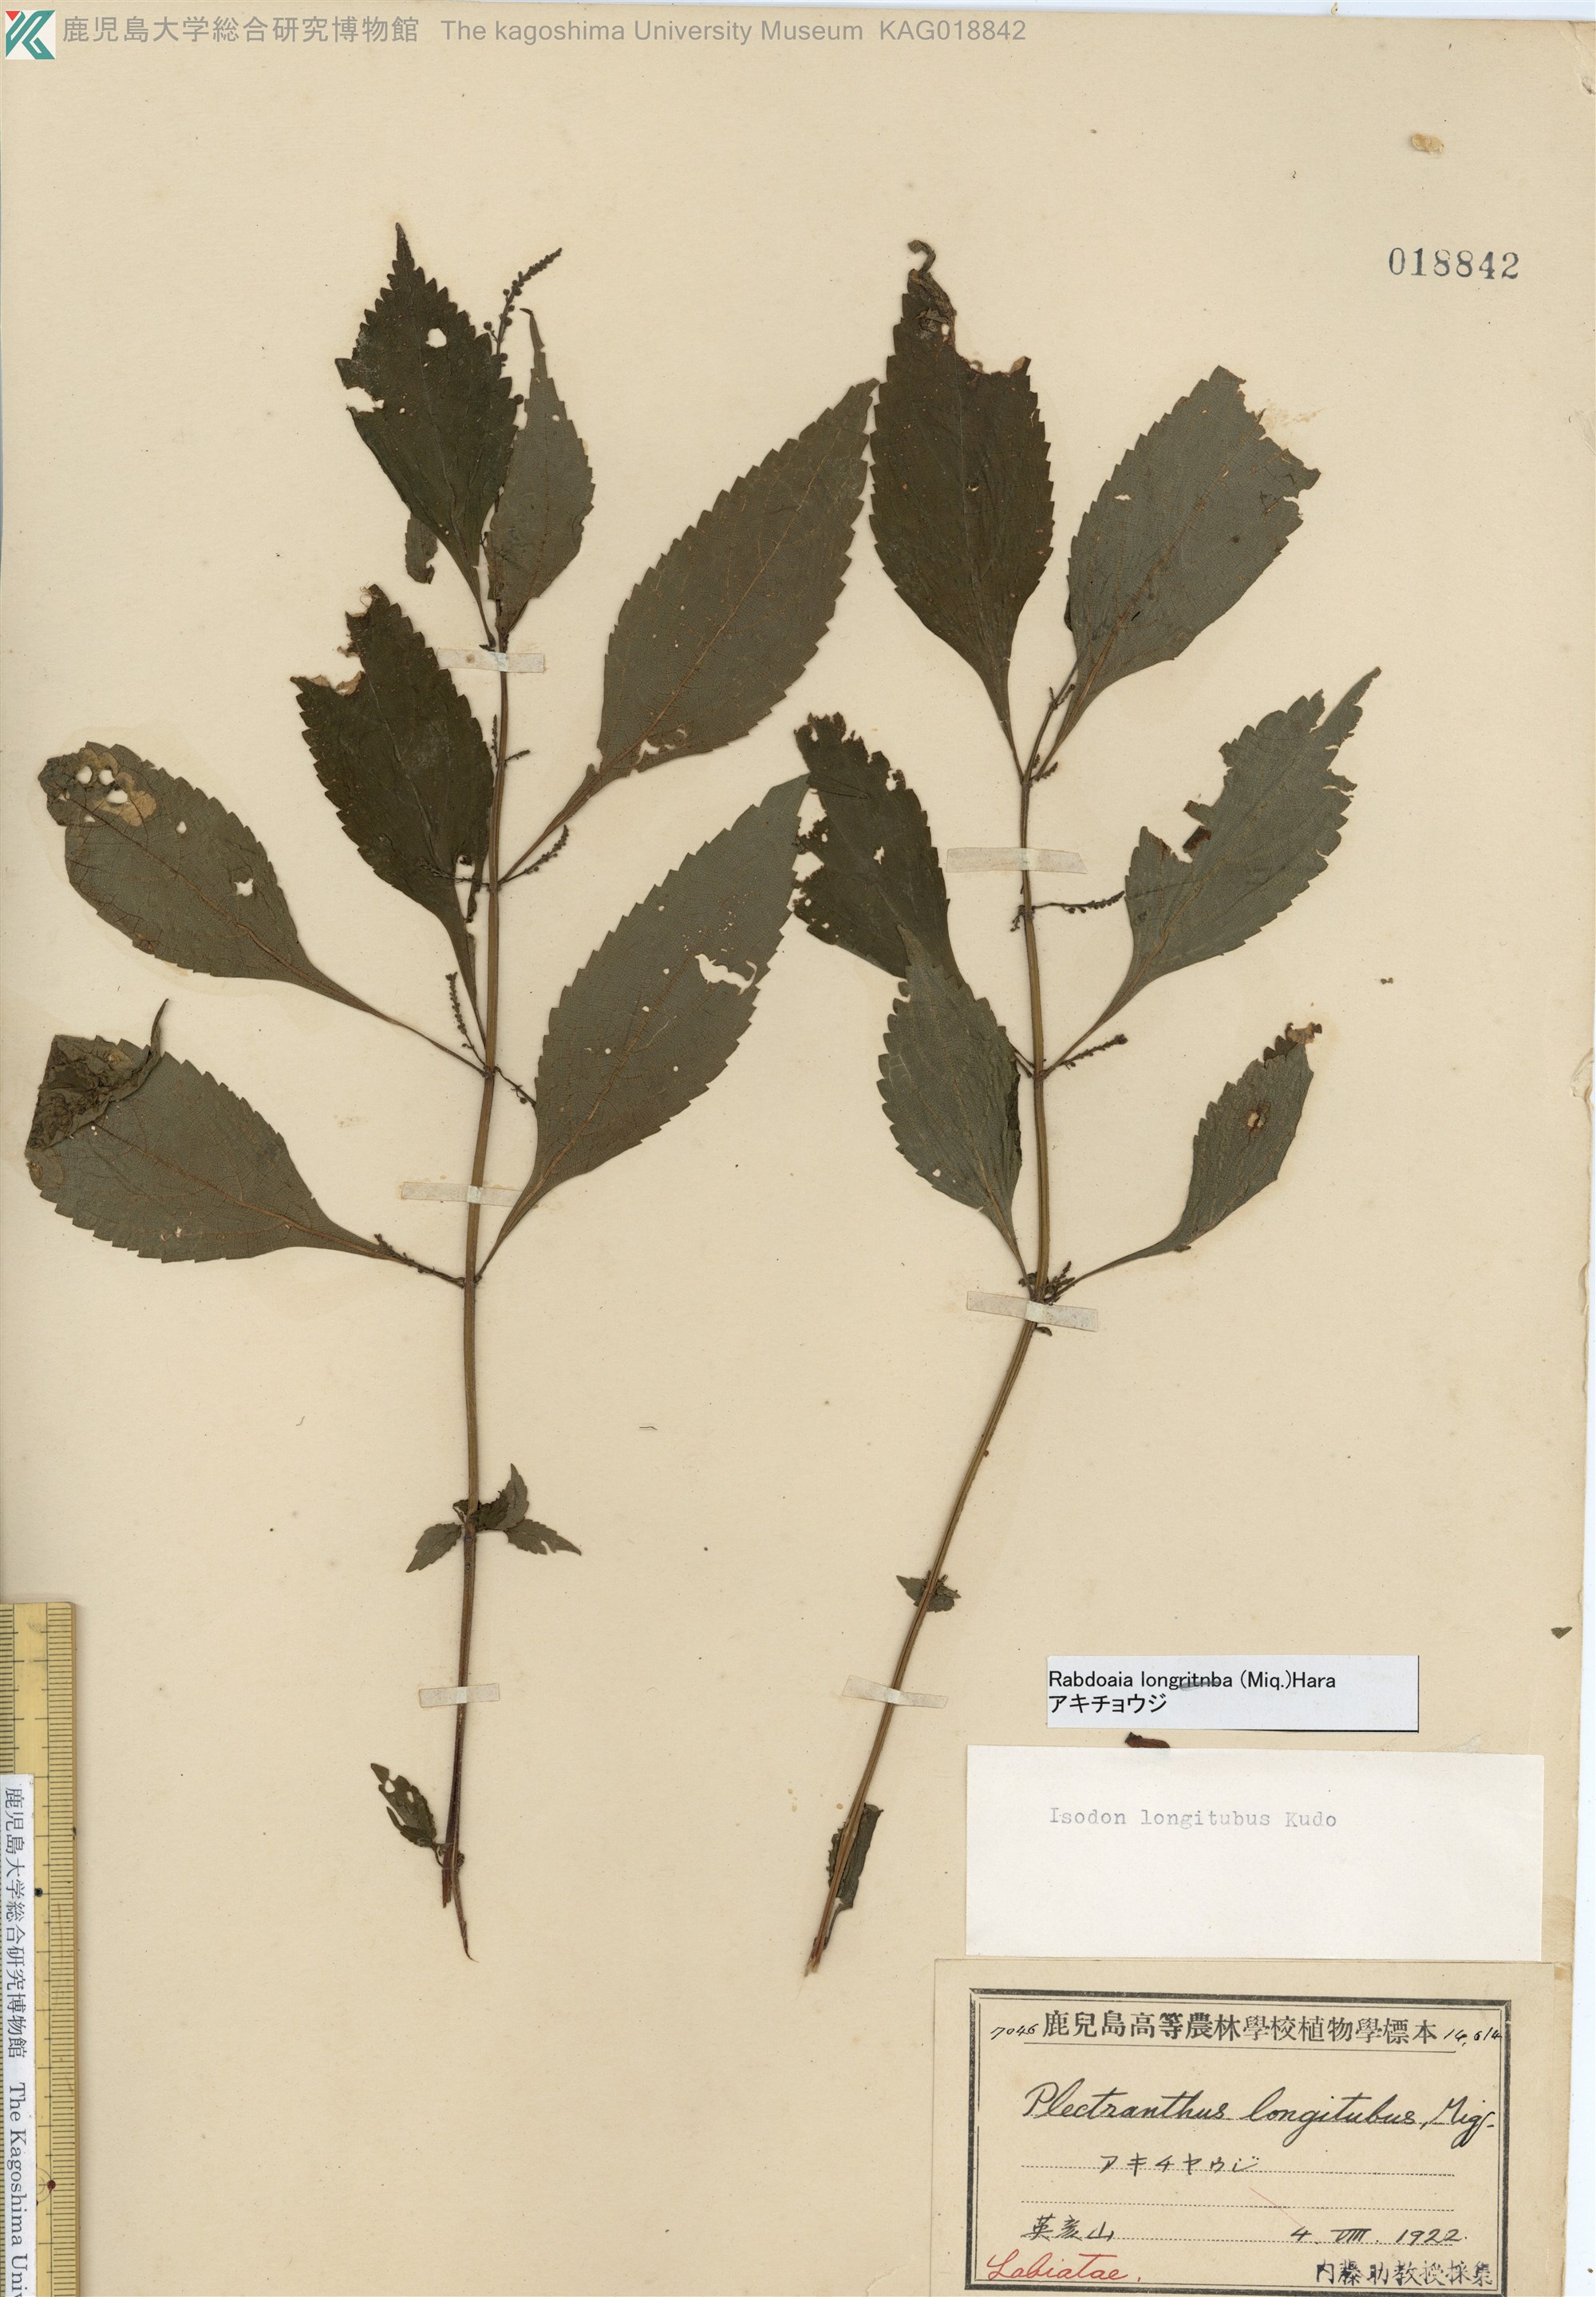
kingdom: Plantae
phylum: Tracheophyta
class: Magnoliopsida
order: Lamiales
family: Lamiaceae
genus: Isodon
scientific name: Isodon longitubus
